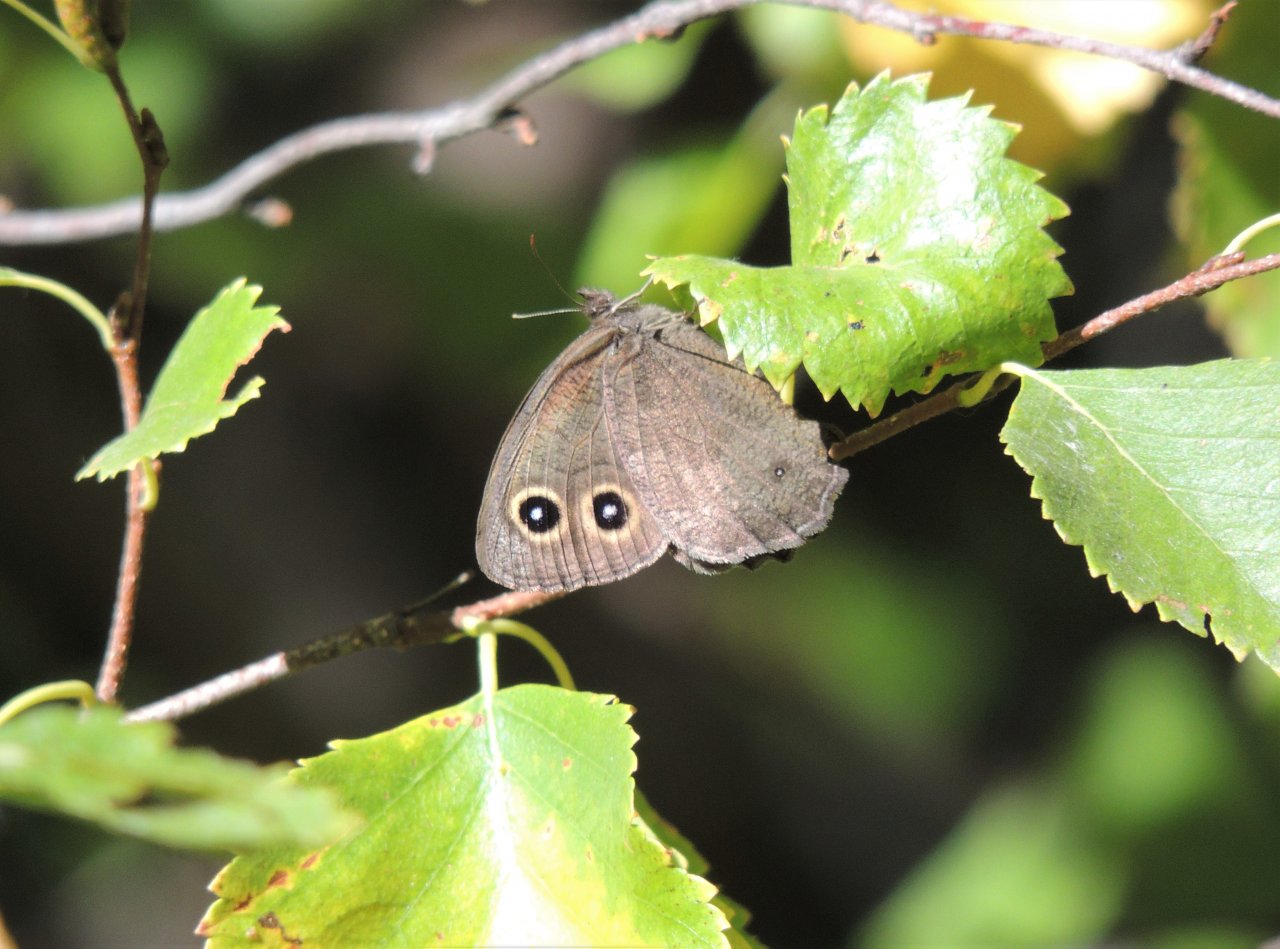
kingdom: Animalia
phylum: Arthropoda
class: Insecta
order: Lepidoptera
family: Nymphalidae
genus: Cercyonis
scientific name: Cercyonis pegala
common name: Common Wood-Nymph
